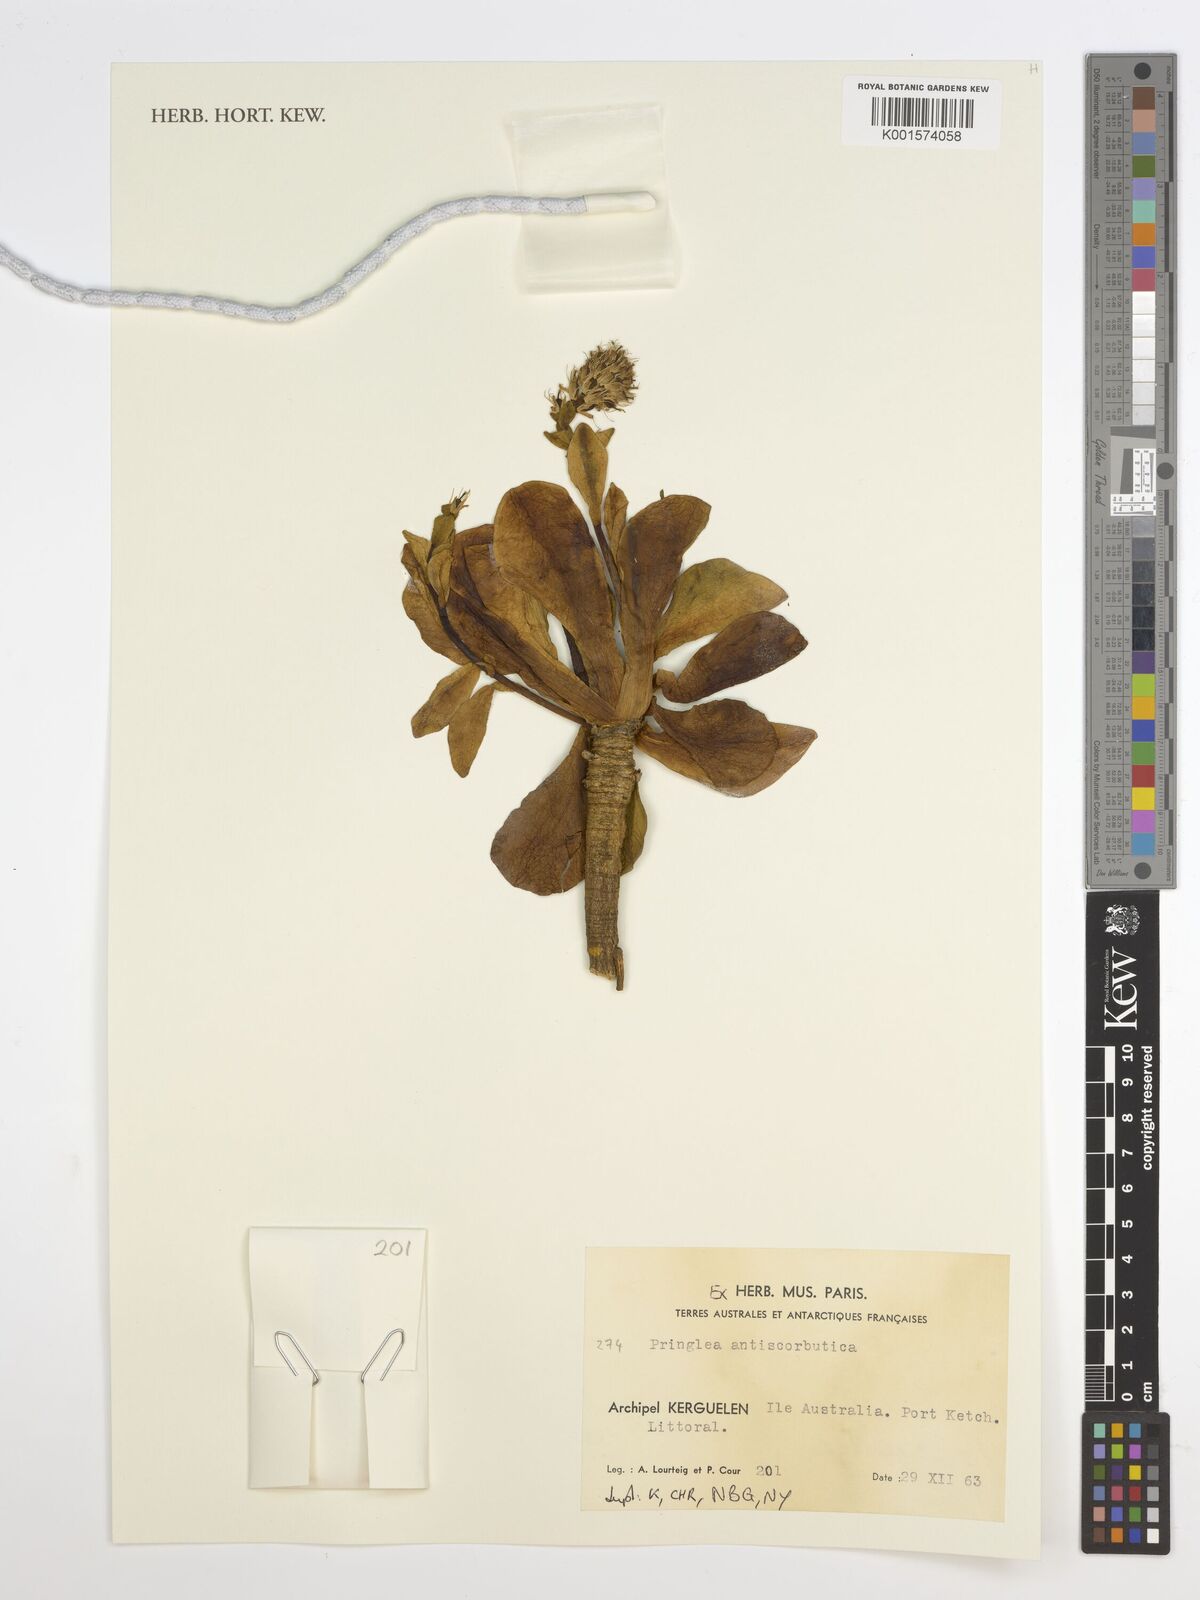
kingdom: Plantae
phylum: Tracheophyta
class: Magnoliopsida
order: Brassicales
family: Brassicaceae
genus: Pringlea
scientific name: Pringlea antiscorbutica
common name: Kerguelen-cabbage
